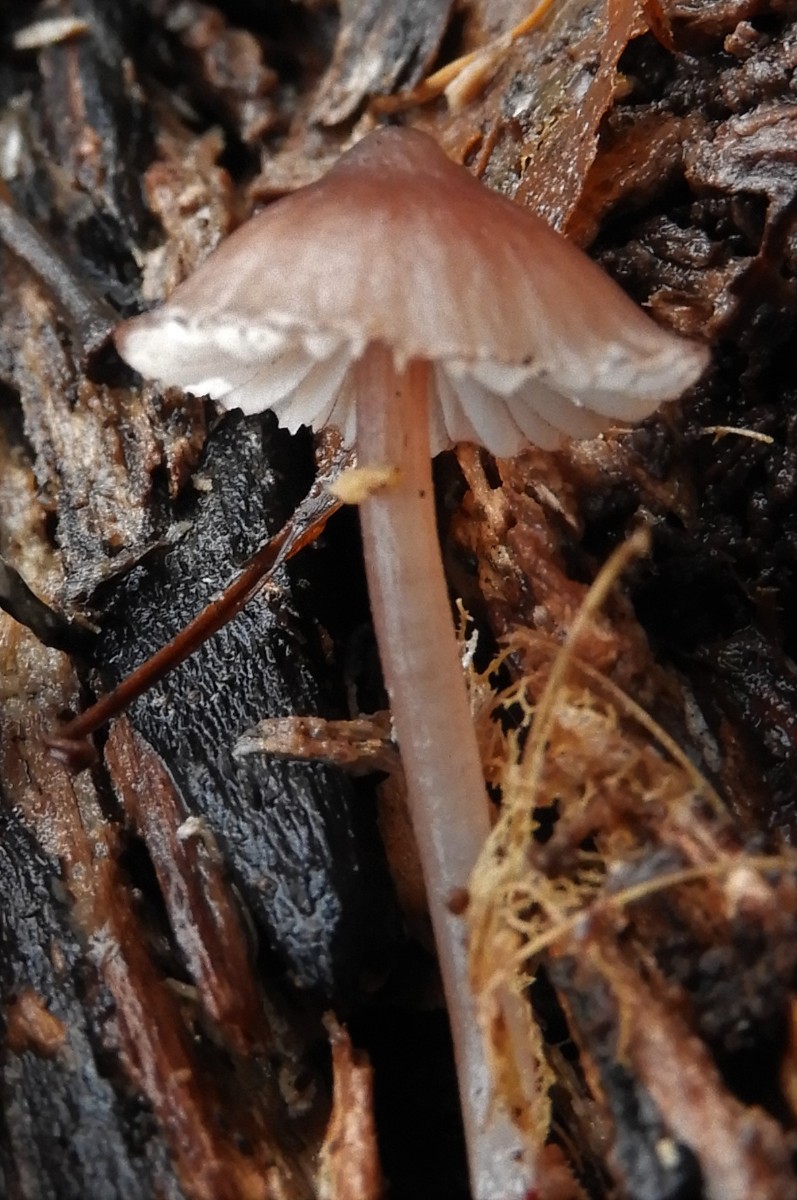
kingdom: Fungi
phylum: Basidiomycota
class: Agaricomycetes
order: Agaricales
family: Mycenaceae
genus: Mycena
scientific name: Mycena sanguinolenta
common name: rødmælket huesvamp
